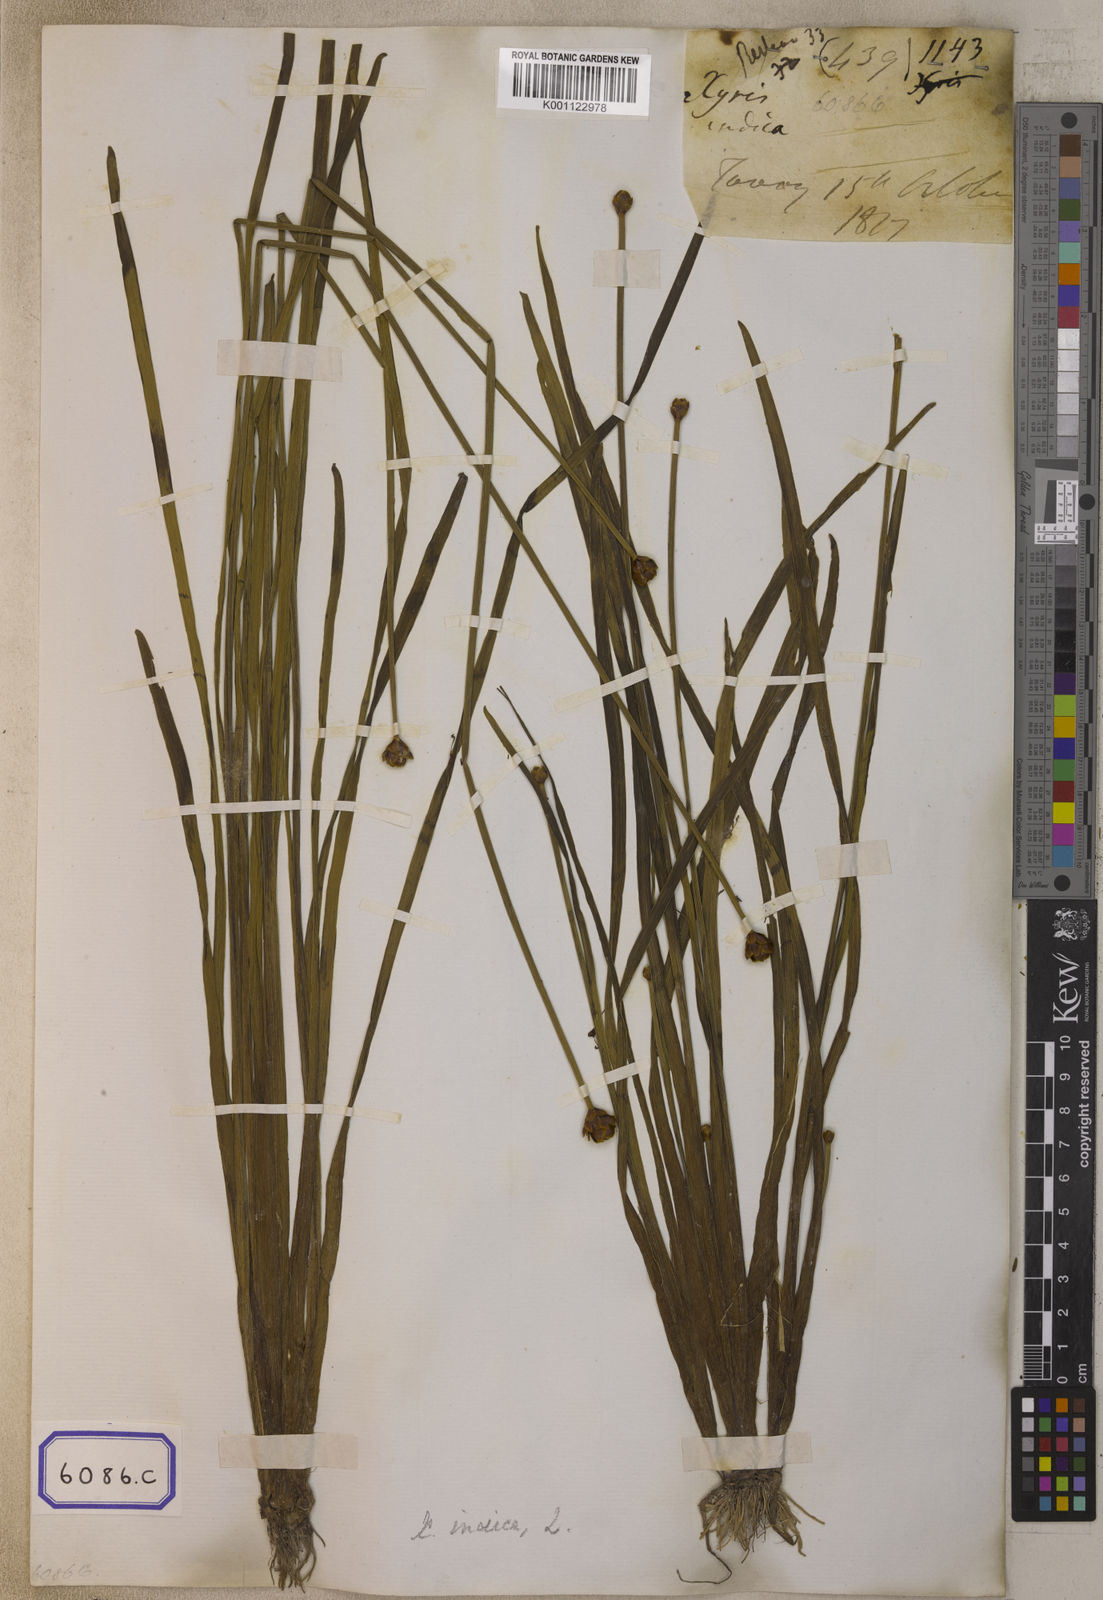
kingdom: Plantae
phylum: Tracheophyta
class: Liliopsida
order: Poales
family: Xyridaceae
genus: Xyris
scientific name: Xyris indica
